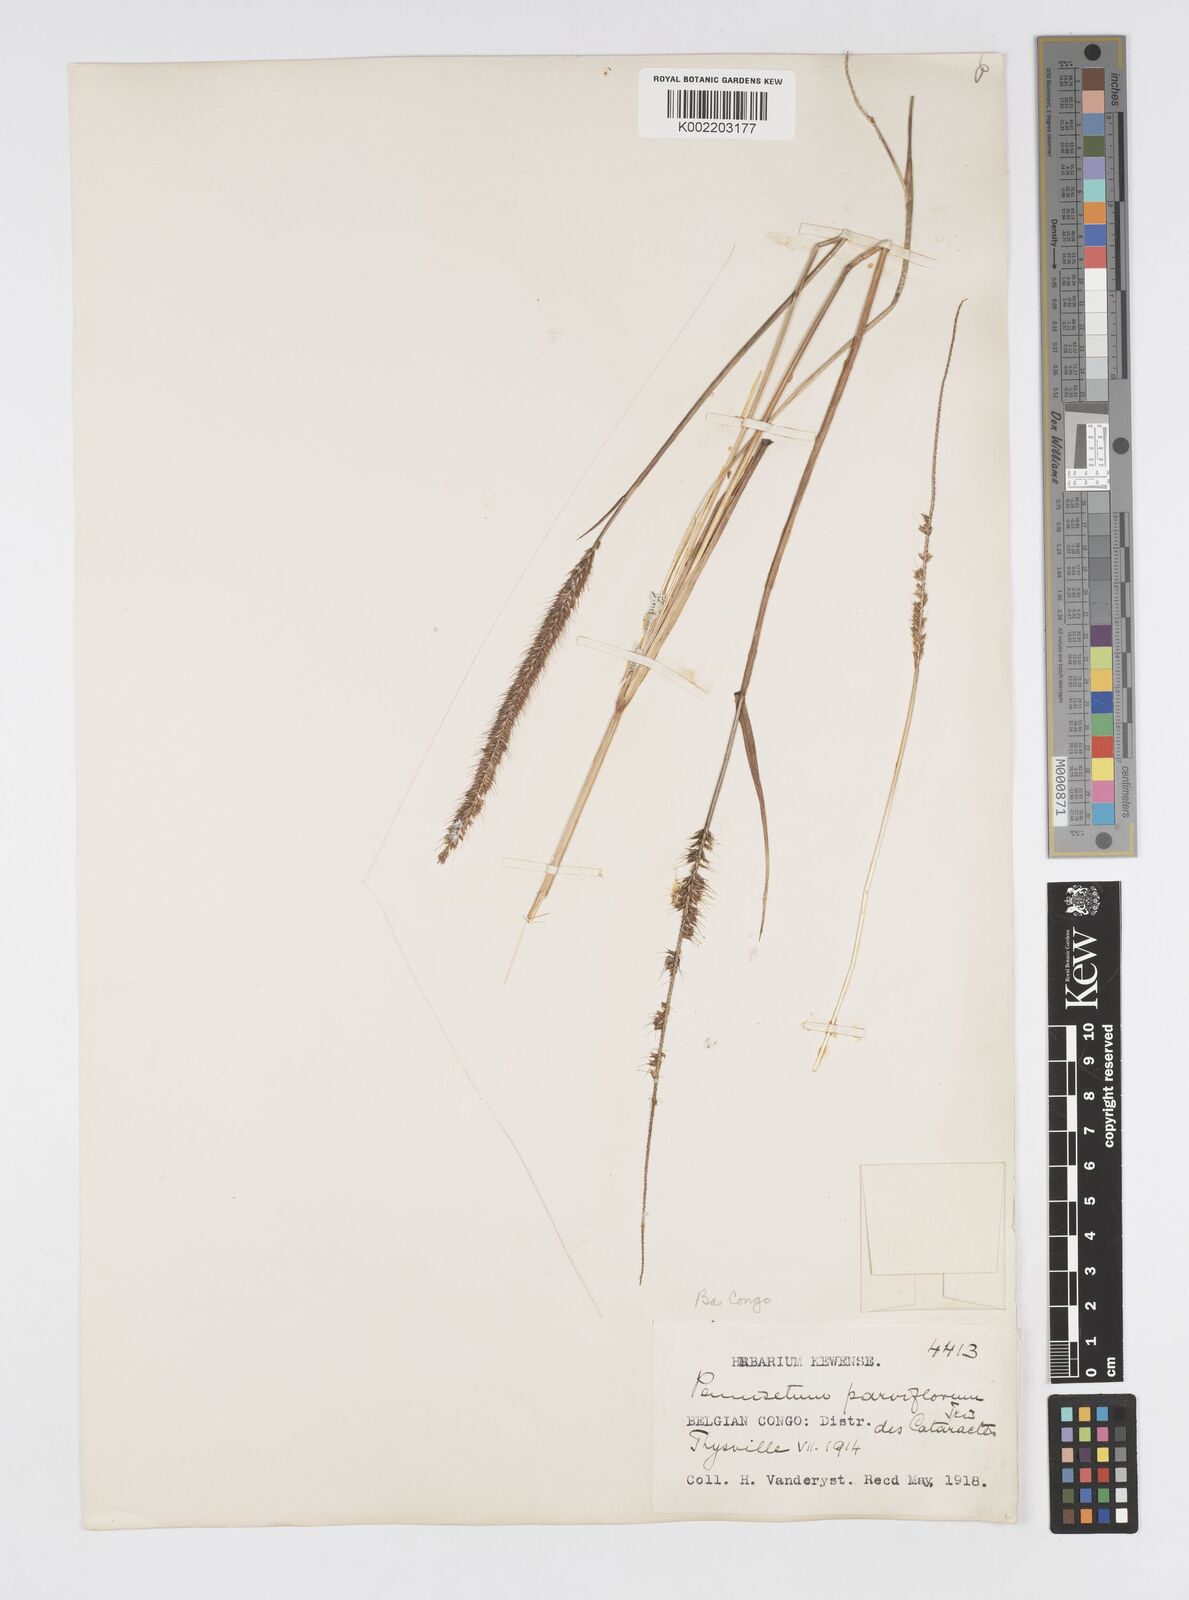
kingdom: Plantae
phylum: Tracheophyta
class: Liliopsida
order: Poales
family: Poaceae
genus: Cenchrus
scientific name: Cenchrus hordeoides
